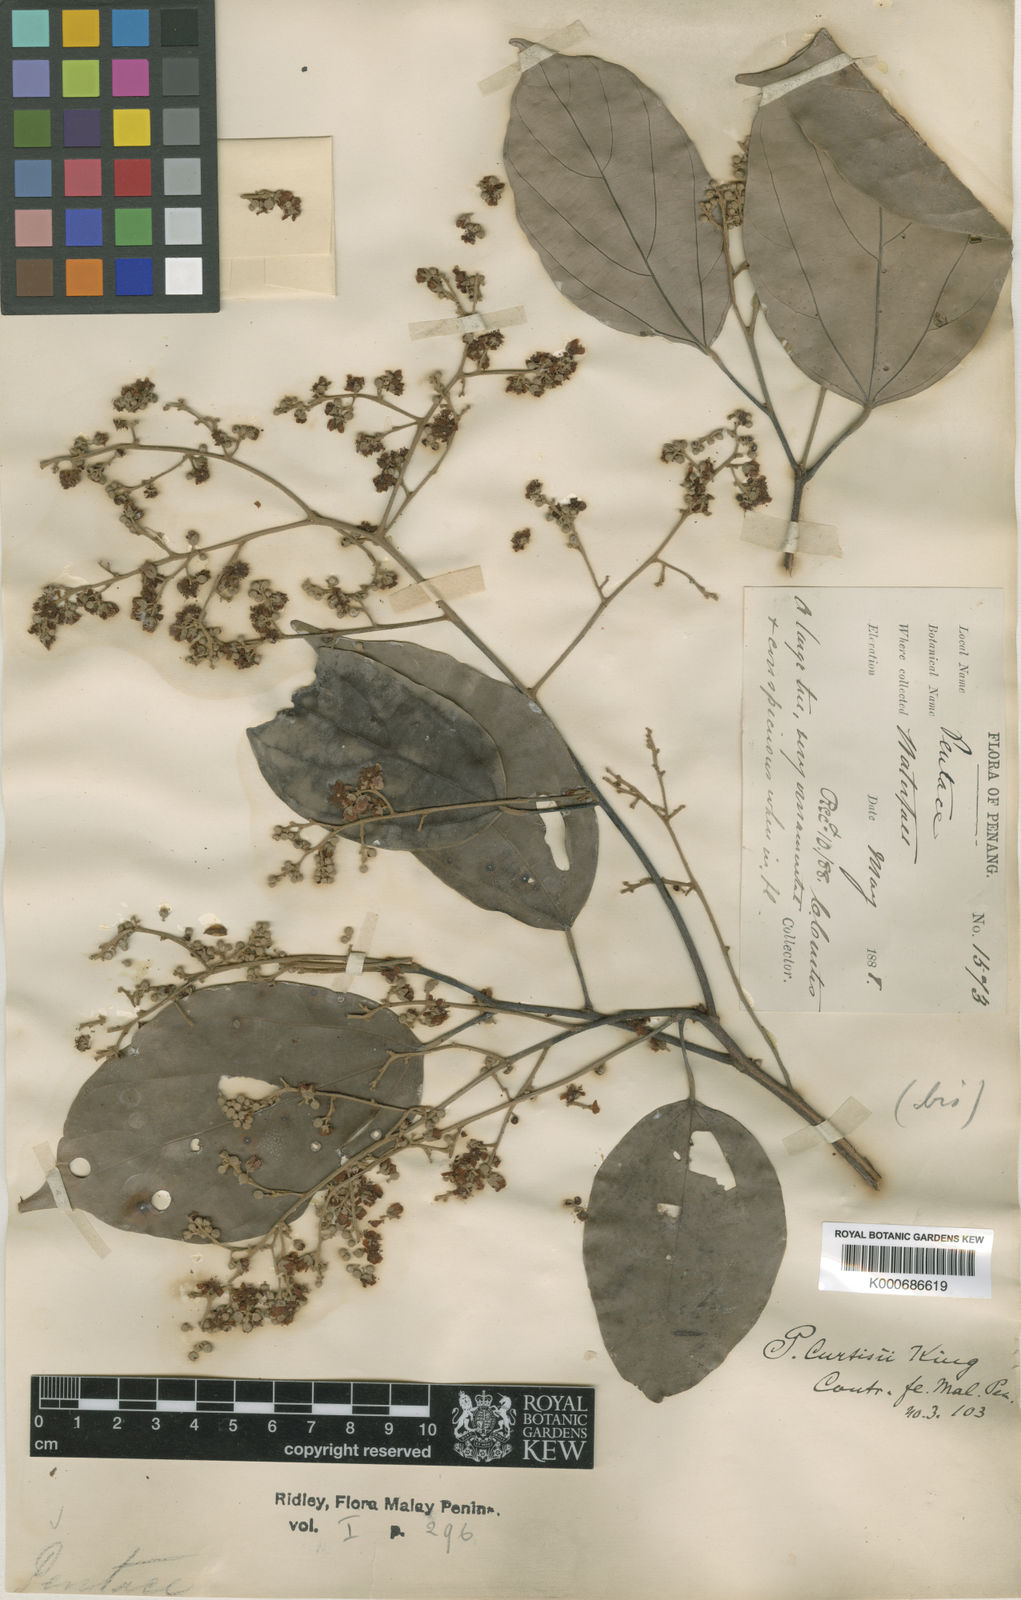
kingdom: Plantae
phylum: Tracheophyta
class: Magnoliopsida
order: Malvales
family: Malvaceae
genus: Pentace
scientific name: Pentace curtisii
